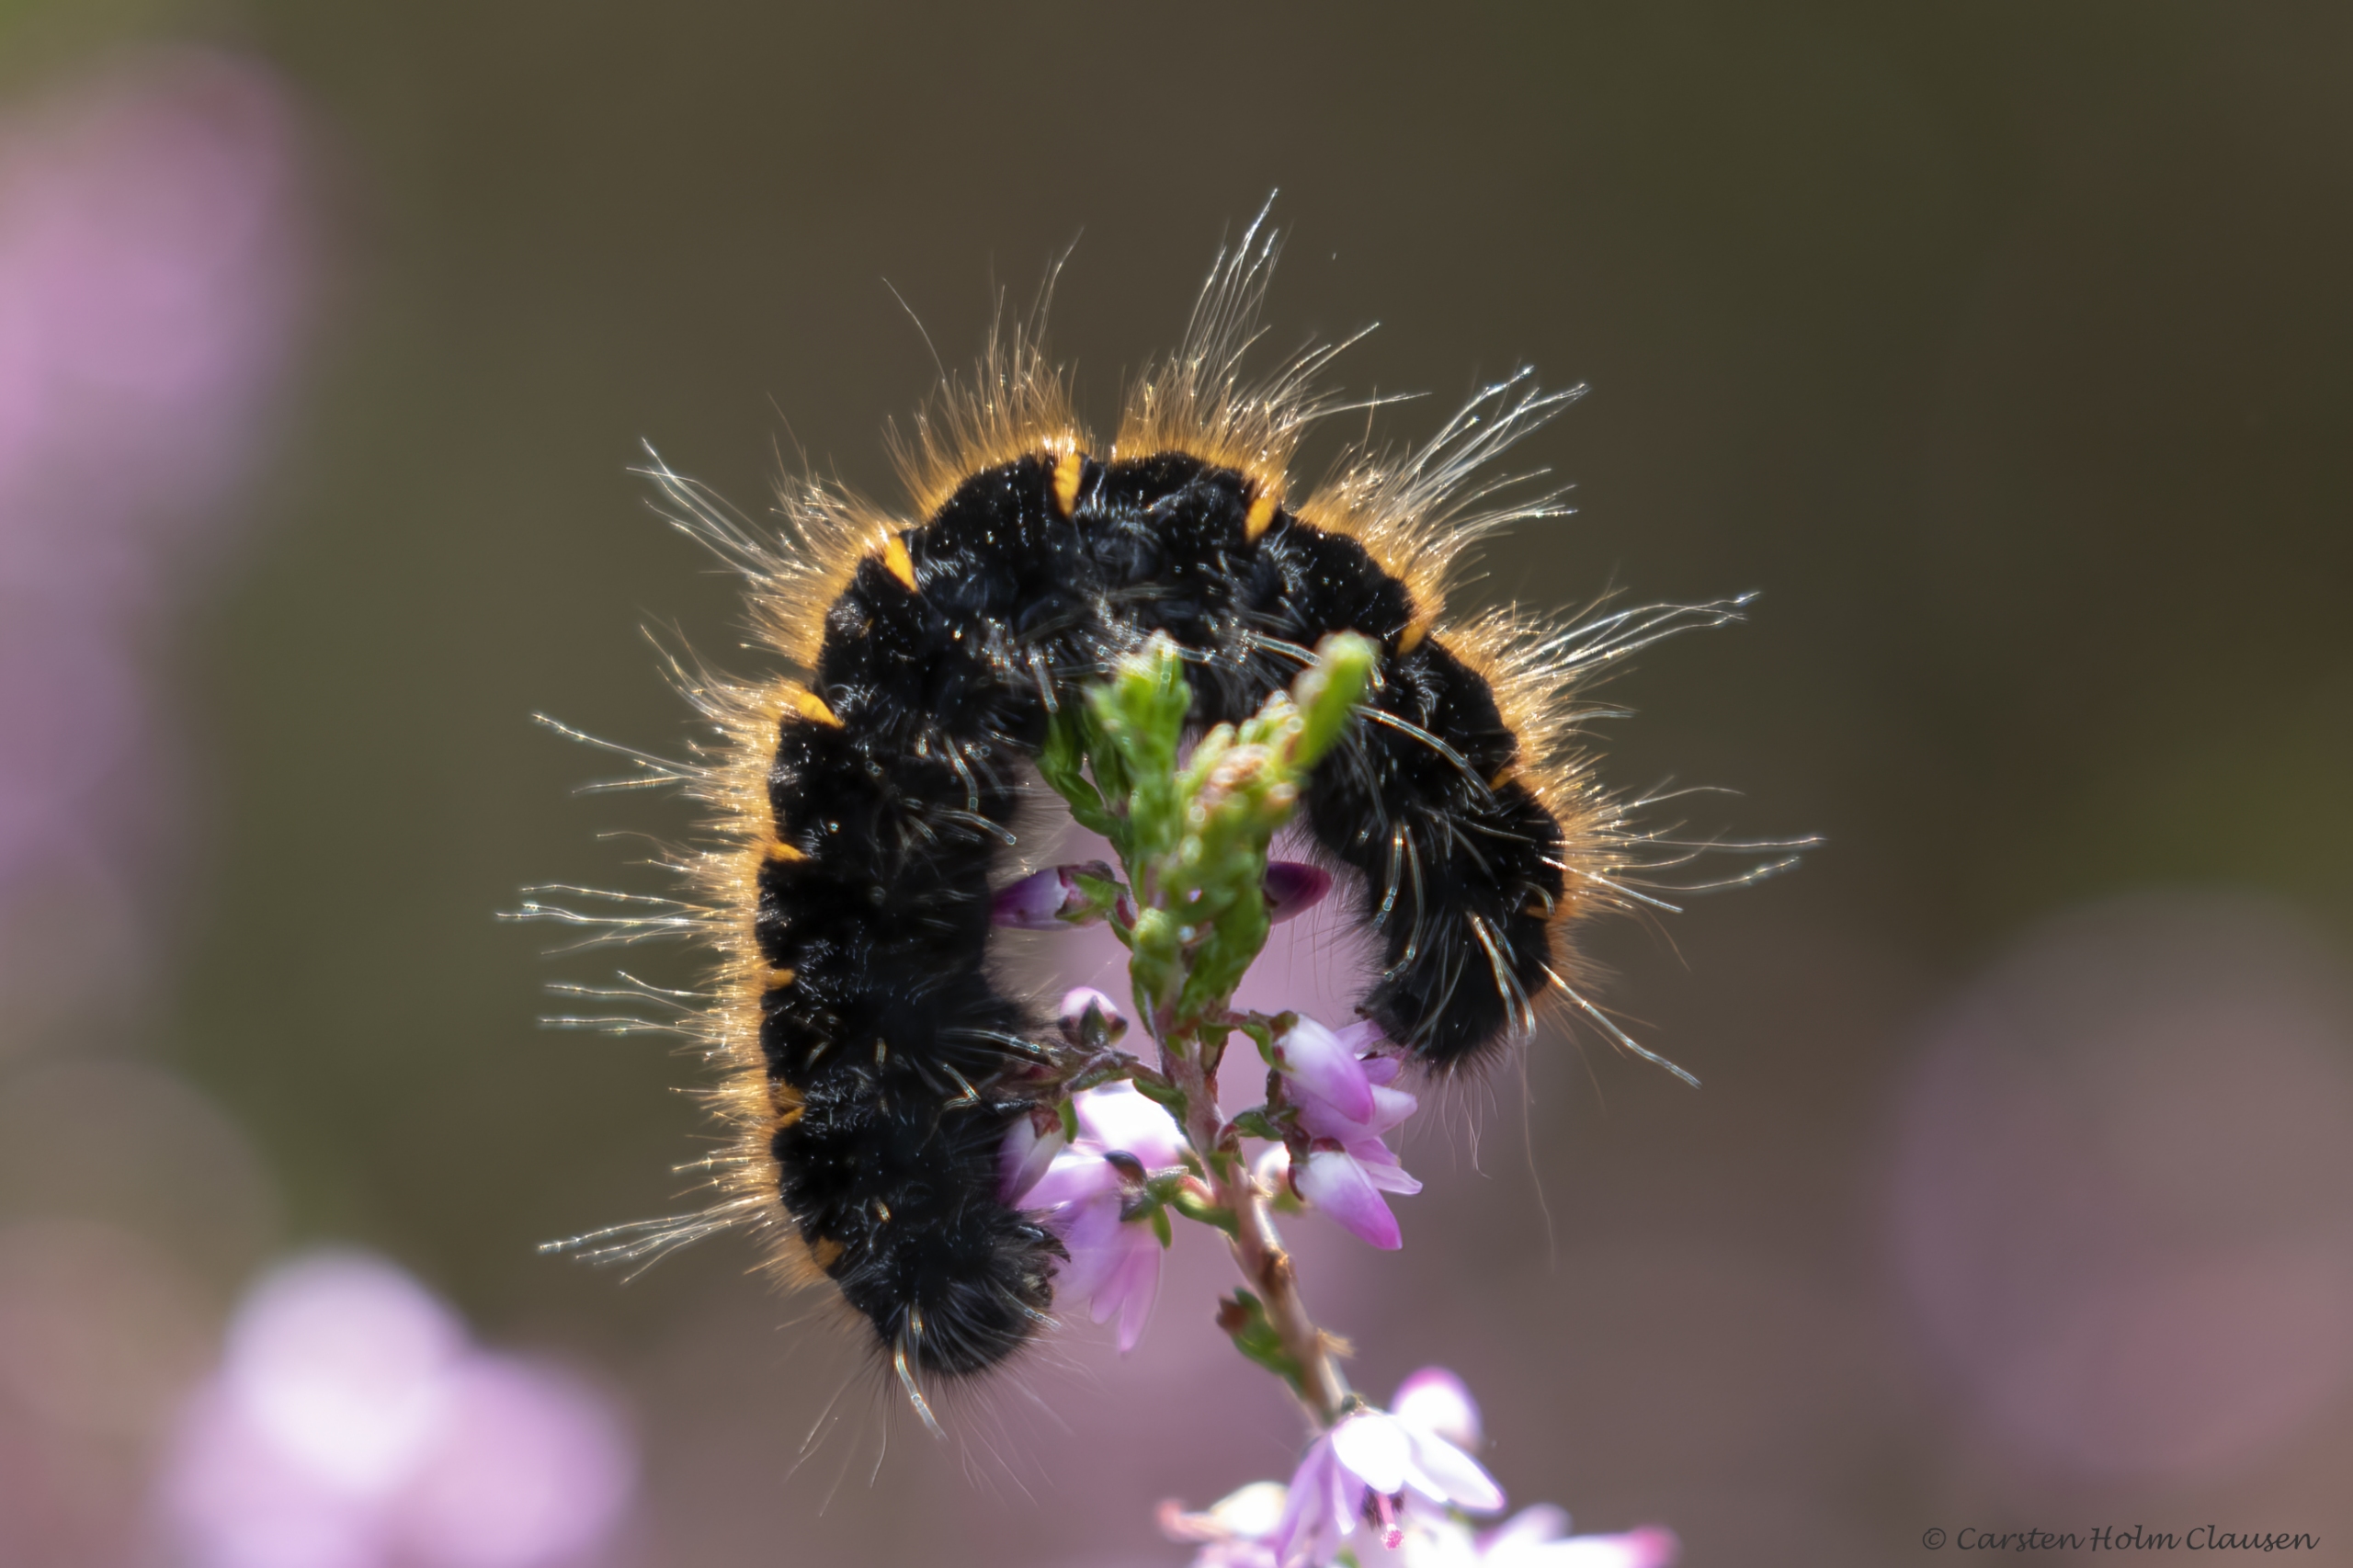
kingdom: Animalia
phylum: Arthropoda
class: Insecta
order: Lepidoptera
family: Lasiocampidae
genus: Macrothylacia
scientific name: Macrothylacia rubi
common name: Brombærspinder
